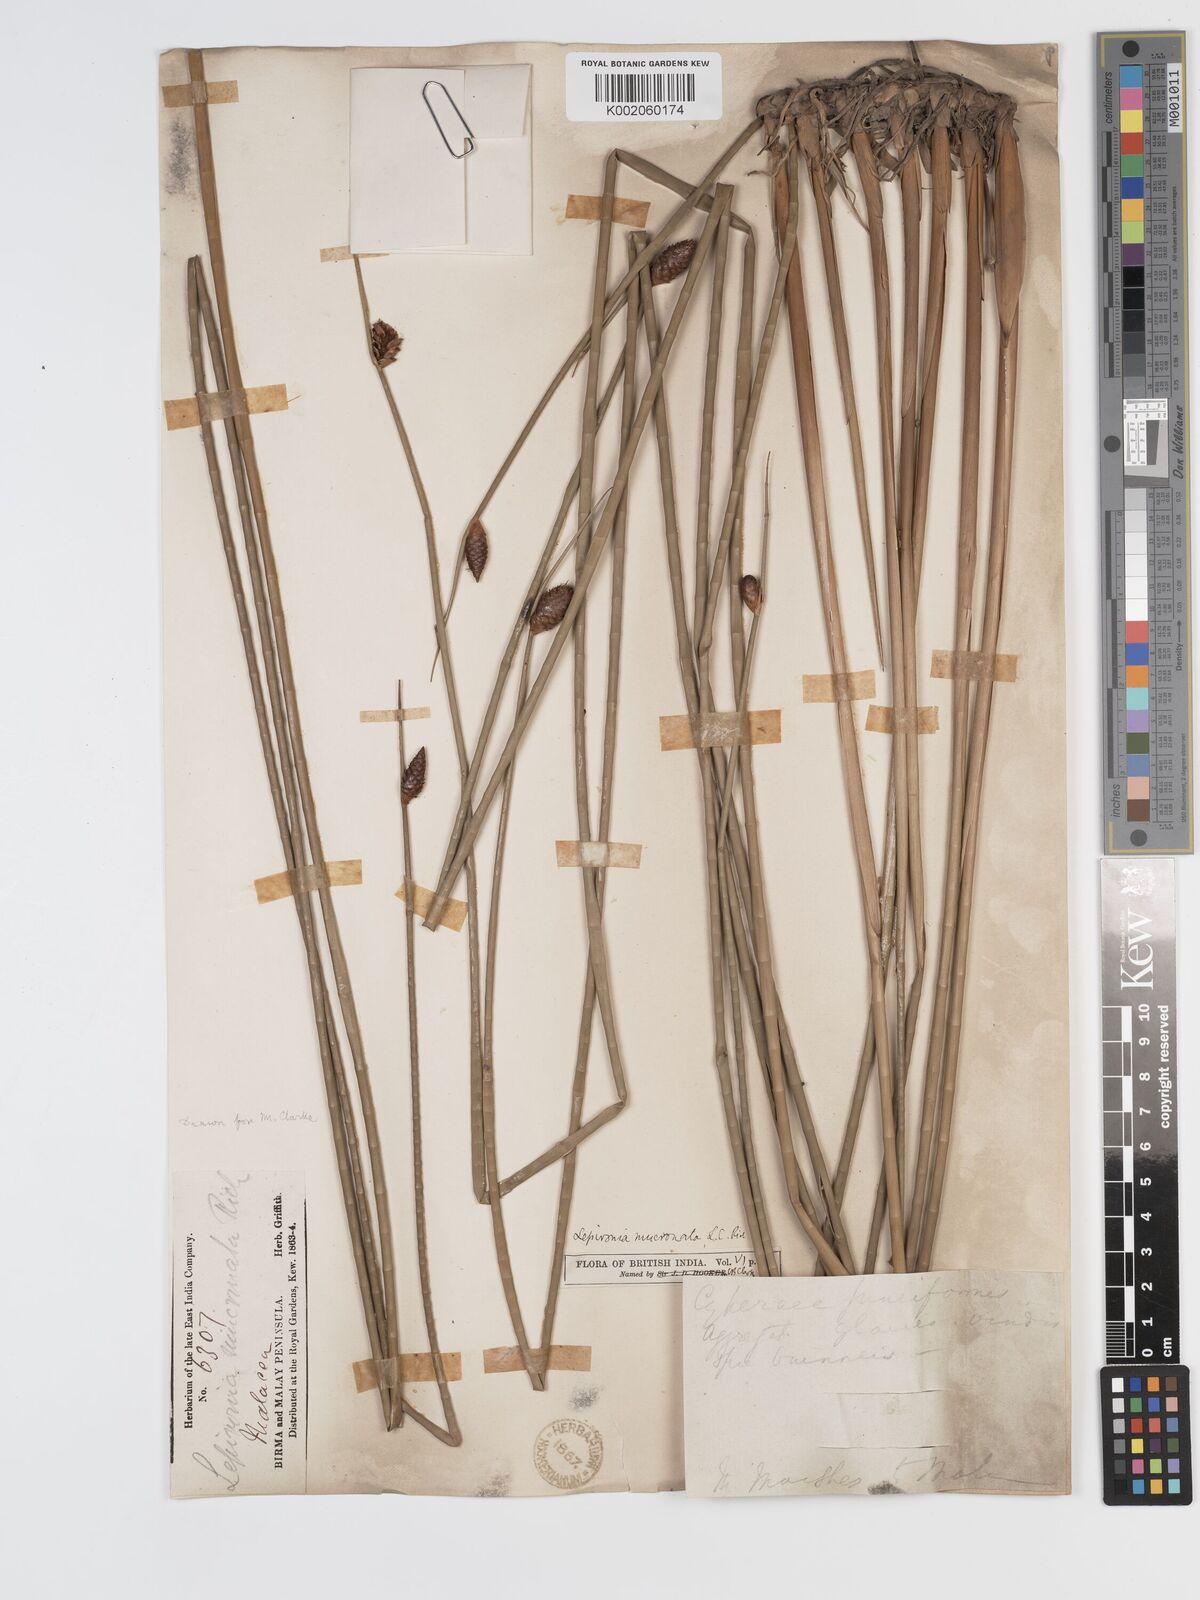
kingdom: Plantae
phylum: Tracheophyta
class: Liliopsida
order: Poales
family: Cyperaceae
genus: Lepironia
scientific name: Lepironia articulata
